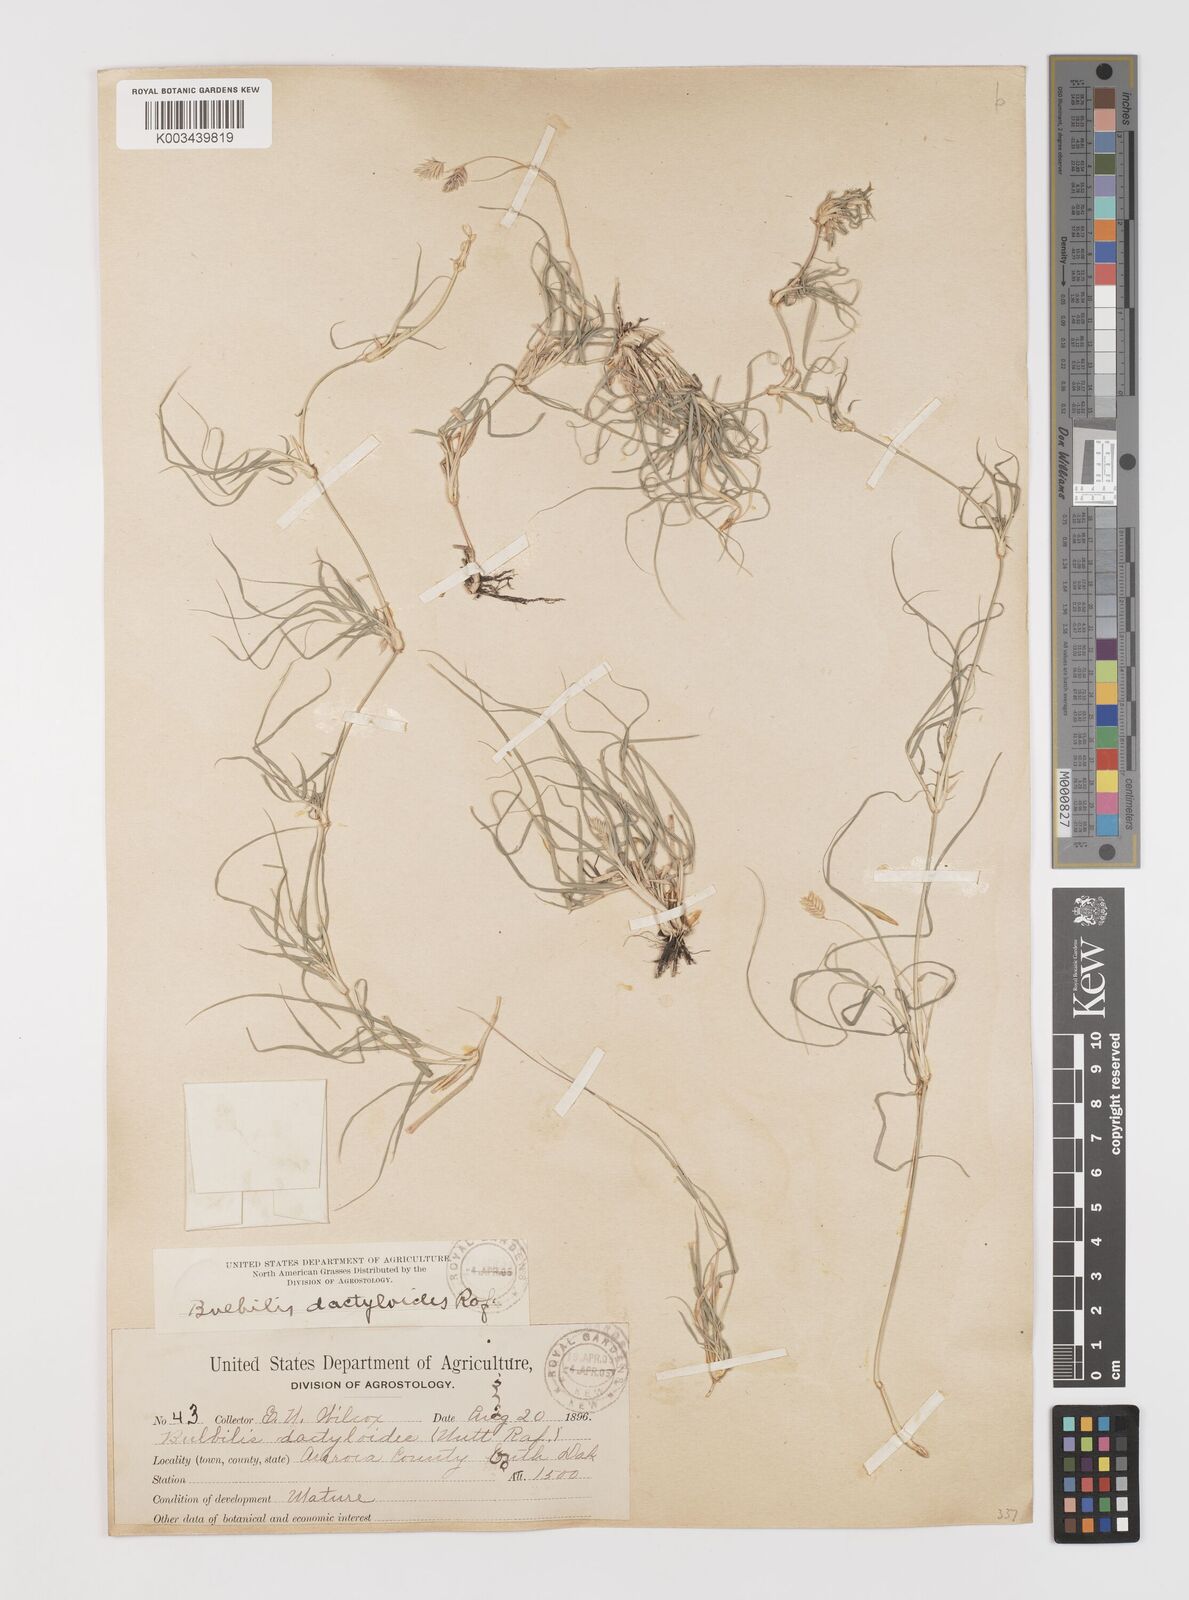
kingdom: Plantae
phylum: Tracheophyta
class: Liliopsida
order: Poales
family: Poaceae
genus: Bouteloua
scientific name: Bouteloua dactyloides
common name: Buffalo grass
